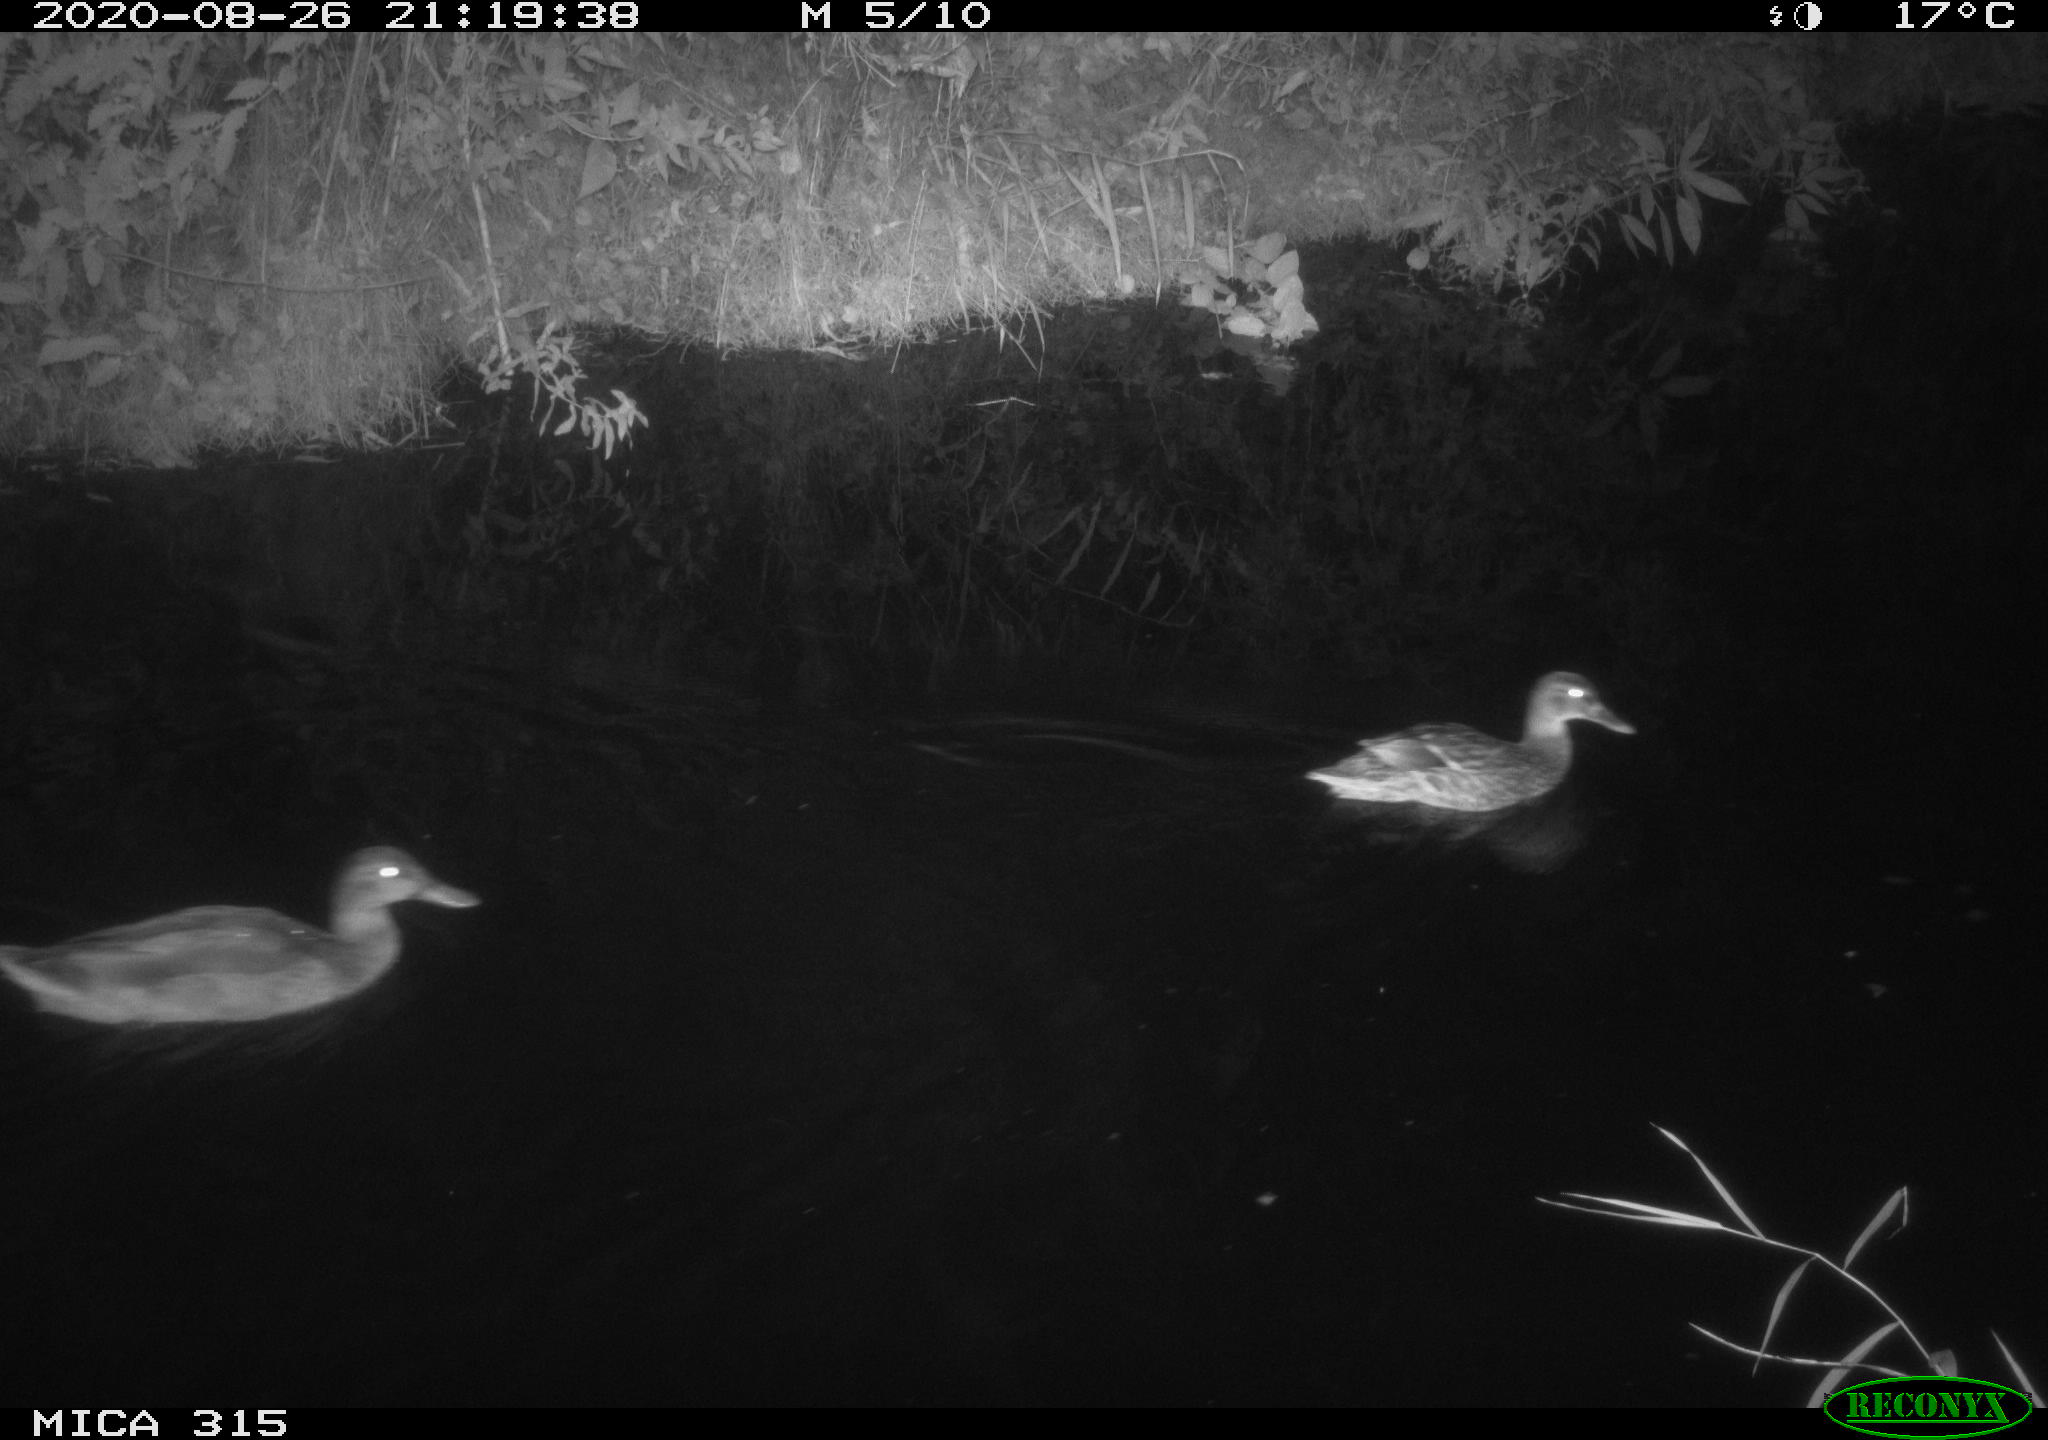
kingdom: Animalia
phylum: Chordata
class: Aves
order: Anseriformes
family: Anatidae
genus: Anas
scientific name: Anas platyrhynchos
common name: Mallard
